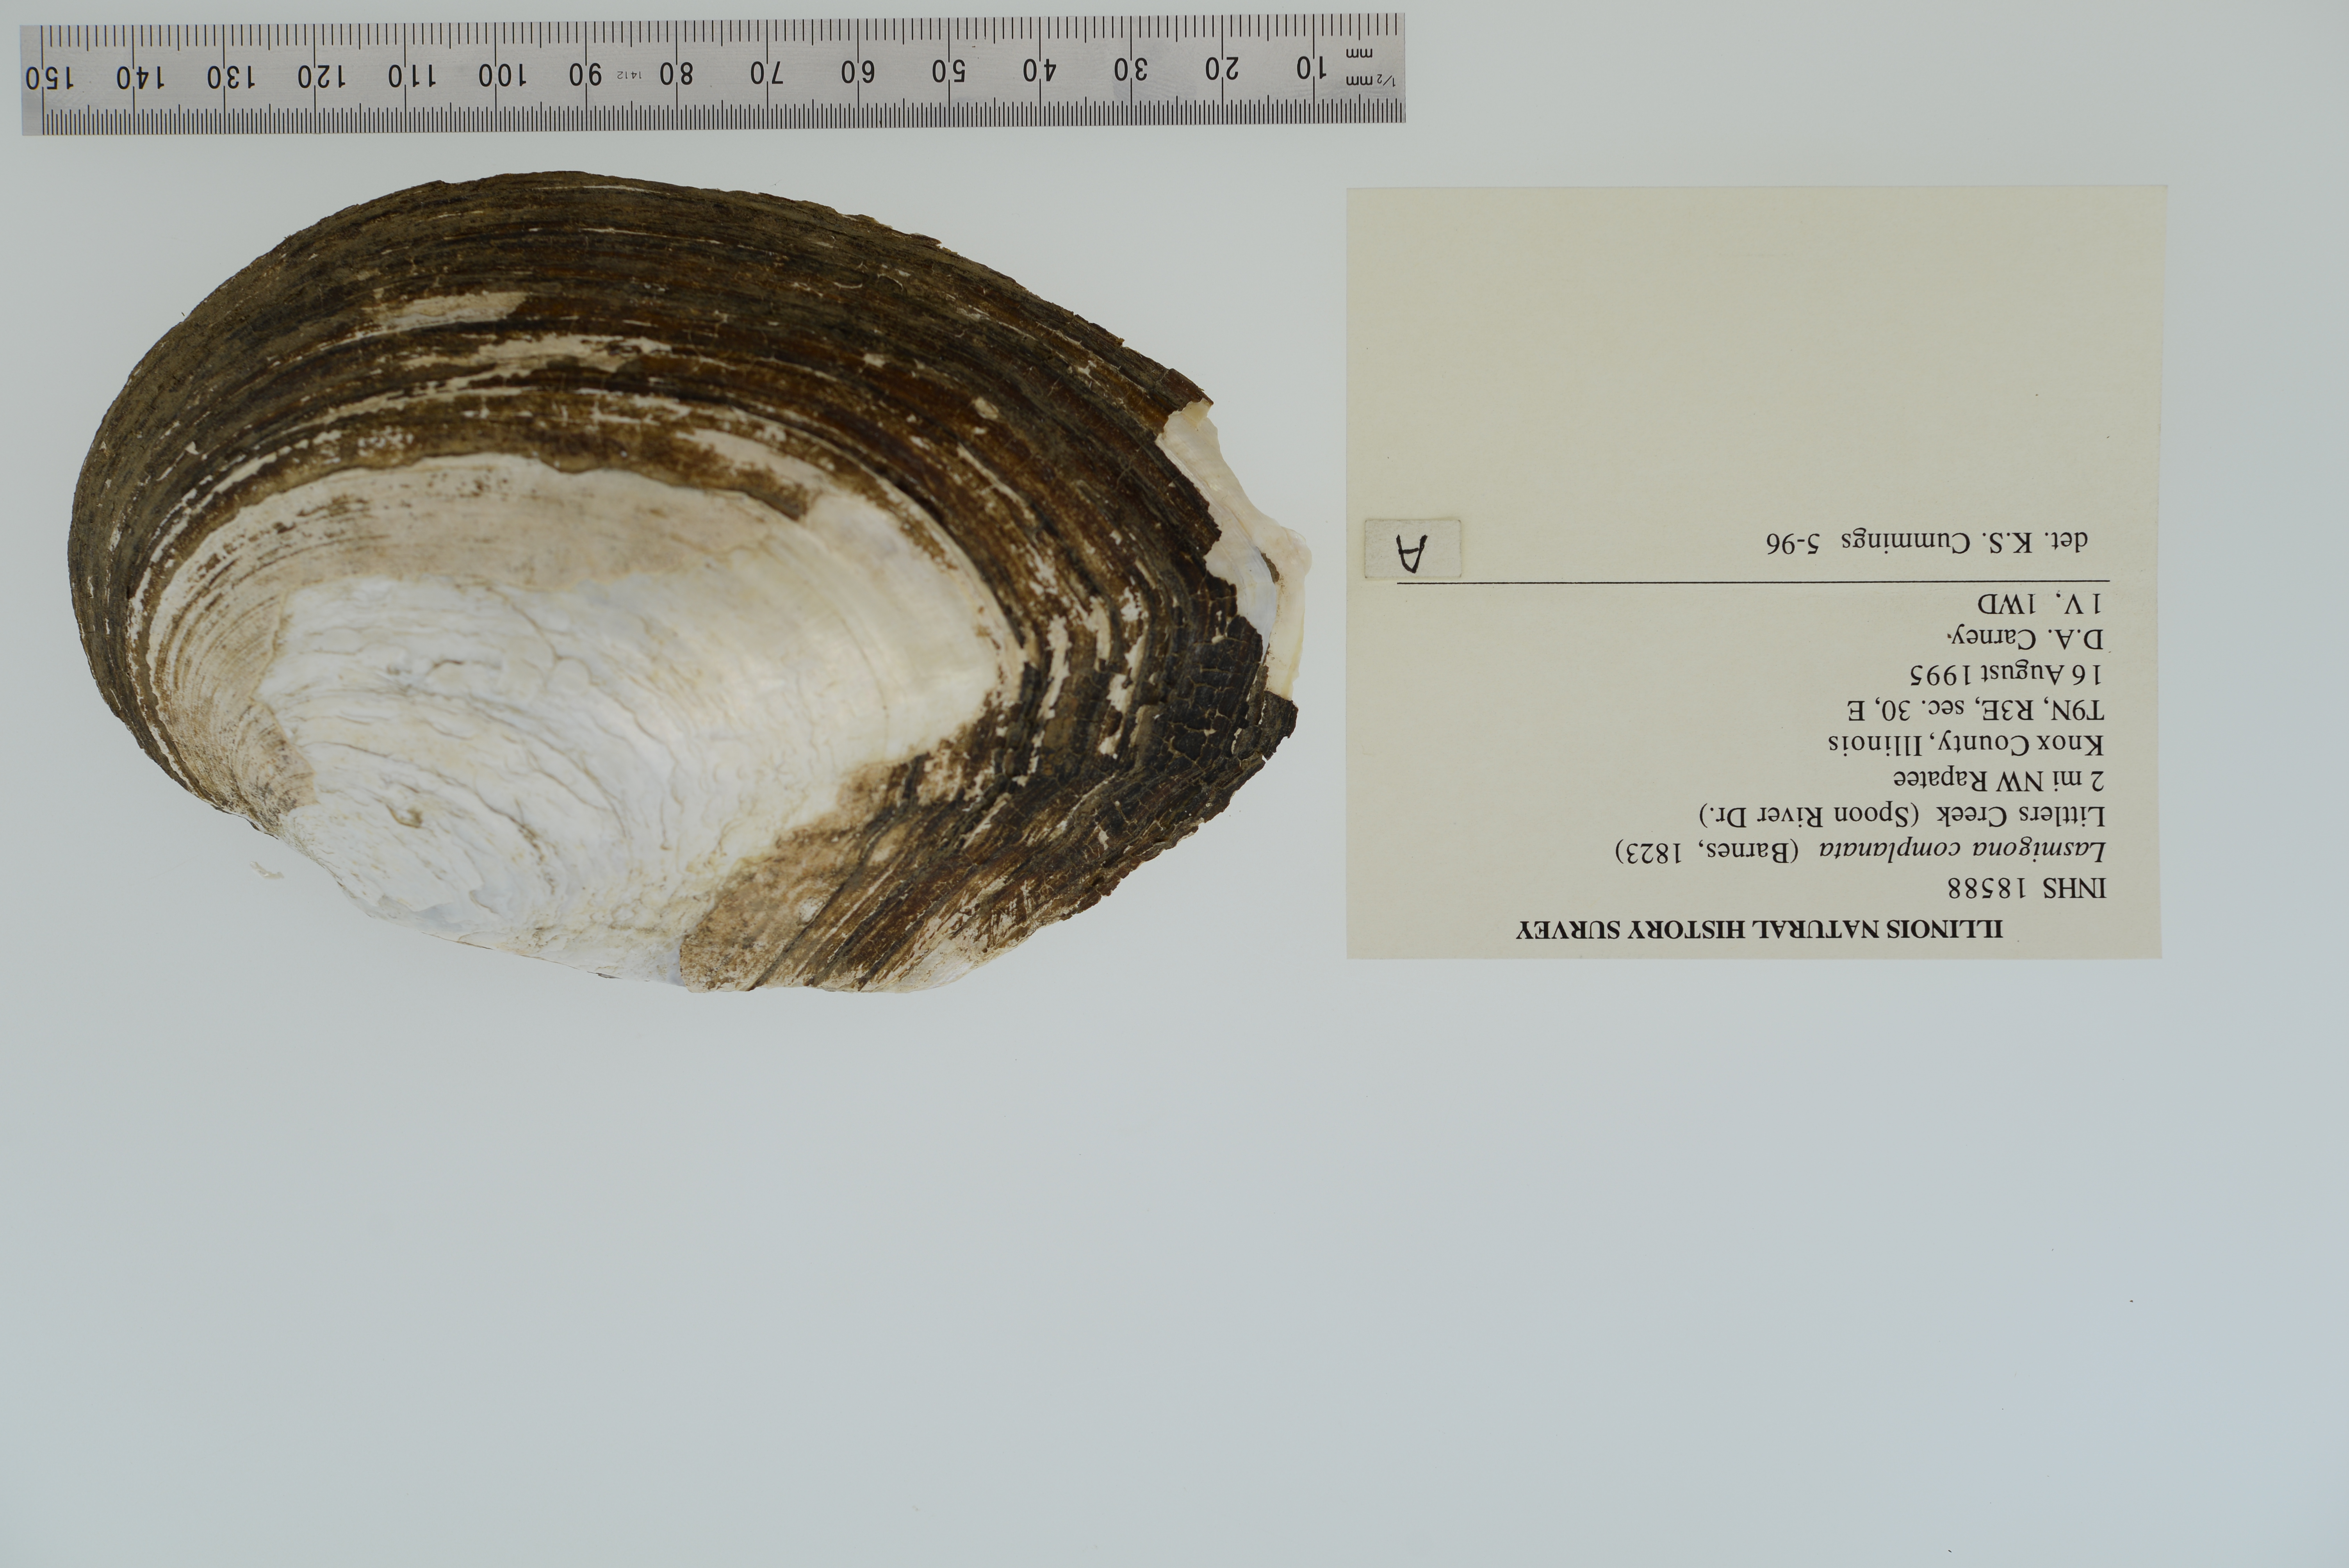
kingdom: Animalia
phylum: Mollusca
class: Bivalvia
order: Unionida
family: Unionidae
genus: Lasmigona
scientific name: Lasmigona complanata
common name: White heelsplitter
